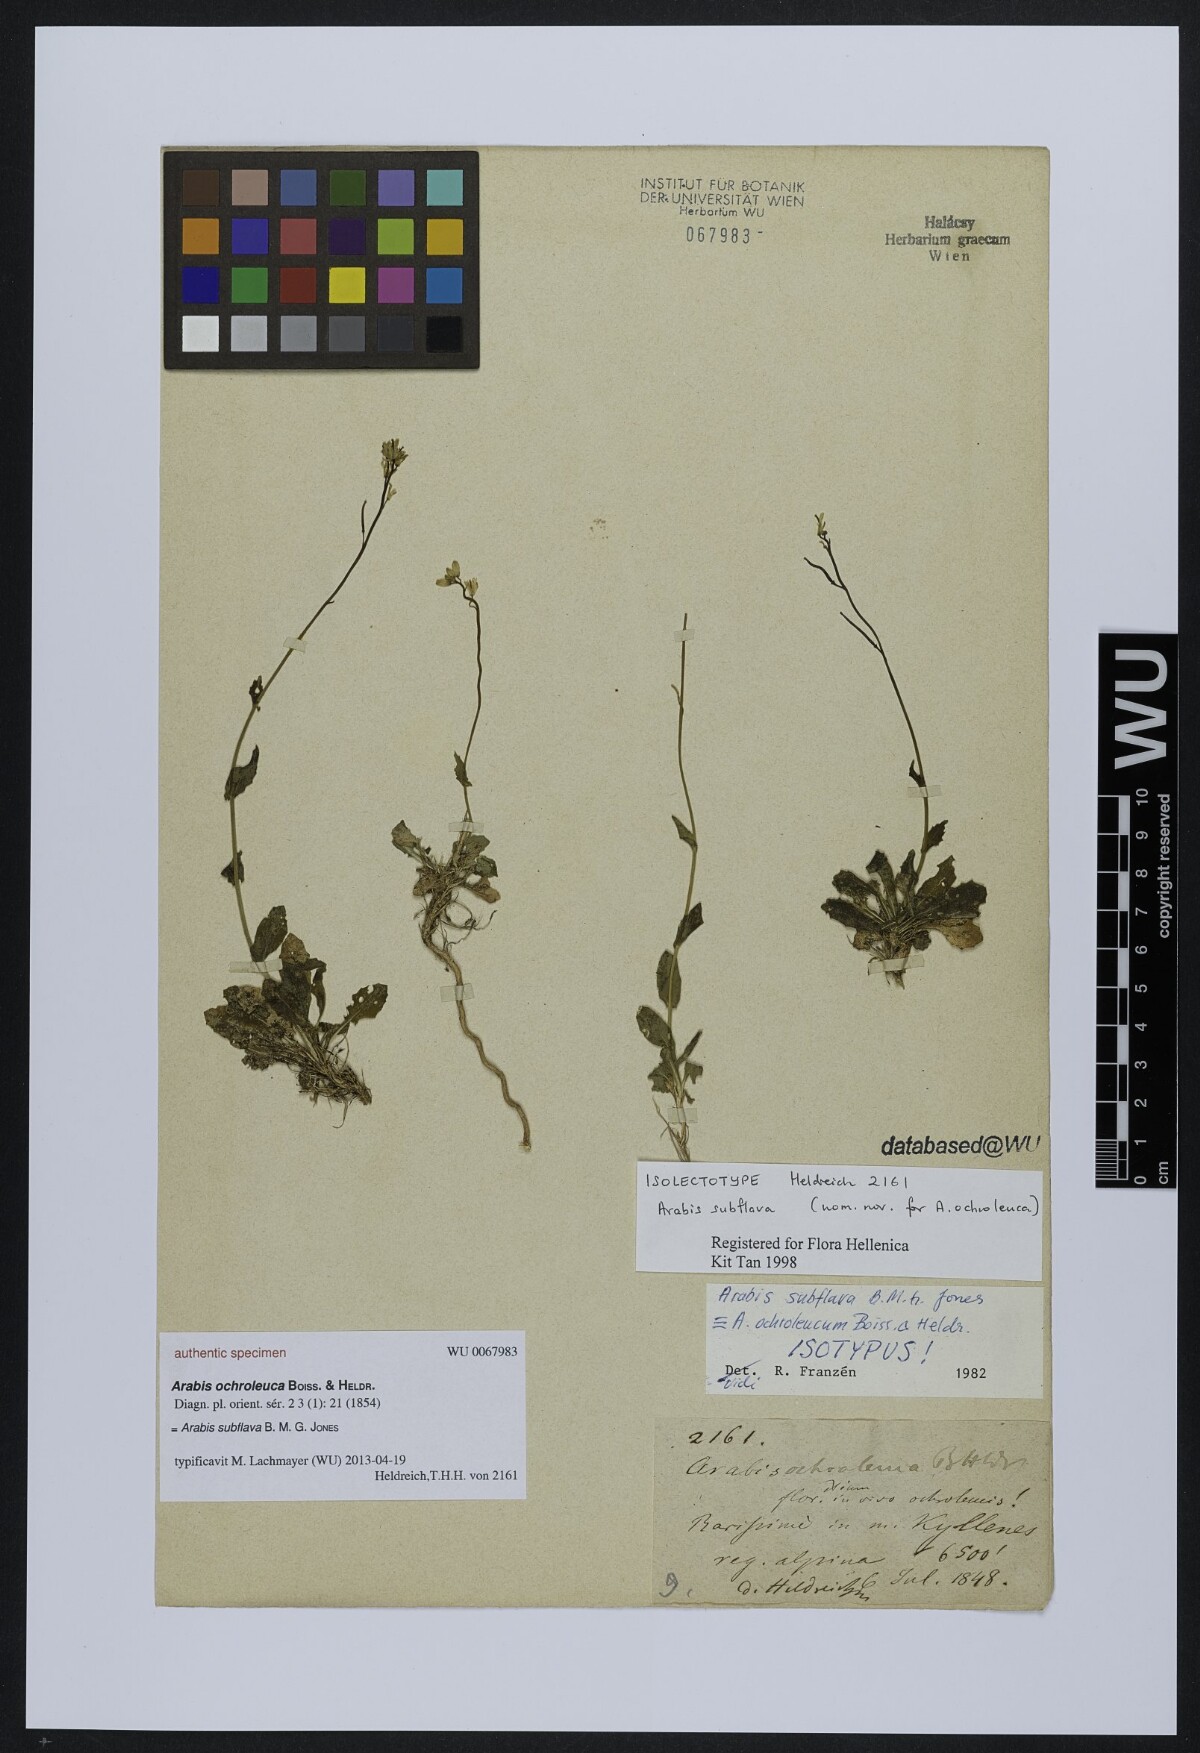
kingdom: Plantae
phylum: Tracheophyta
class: Magnoliopsida
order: Brassicales
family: Brassicaceae
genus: Arabis
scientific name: Arabis subflava
